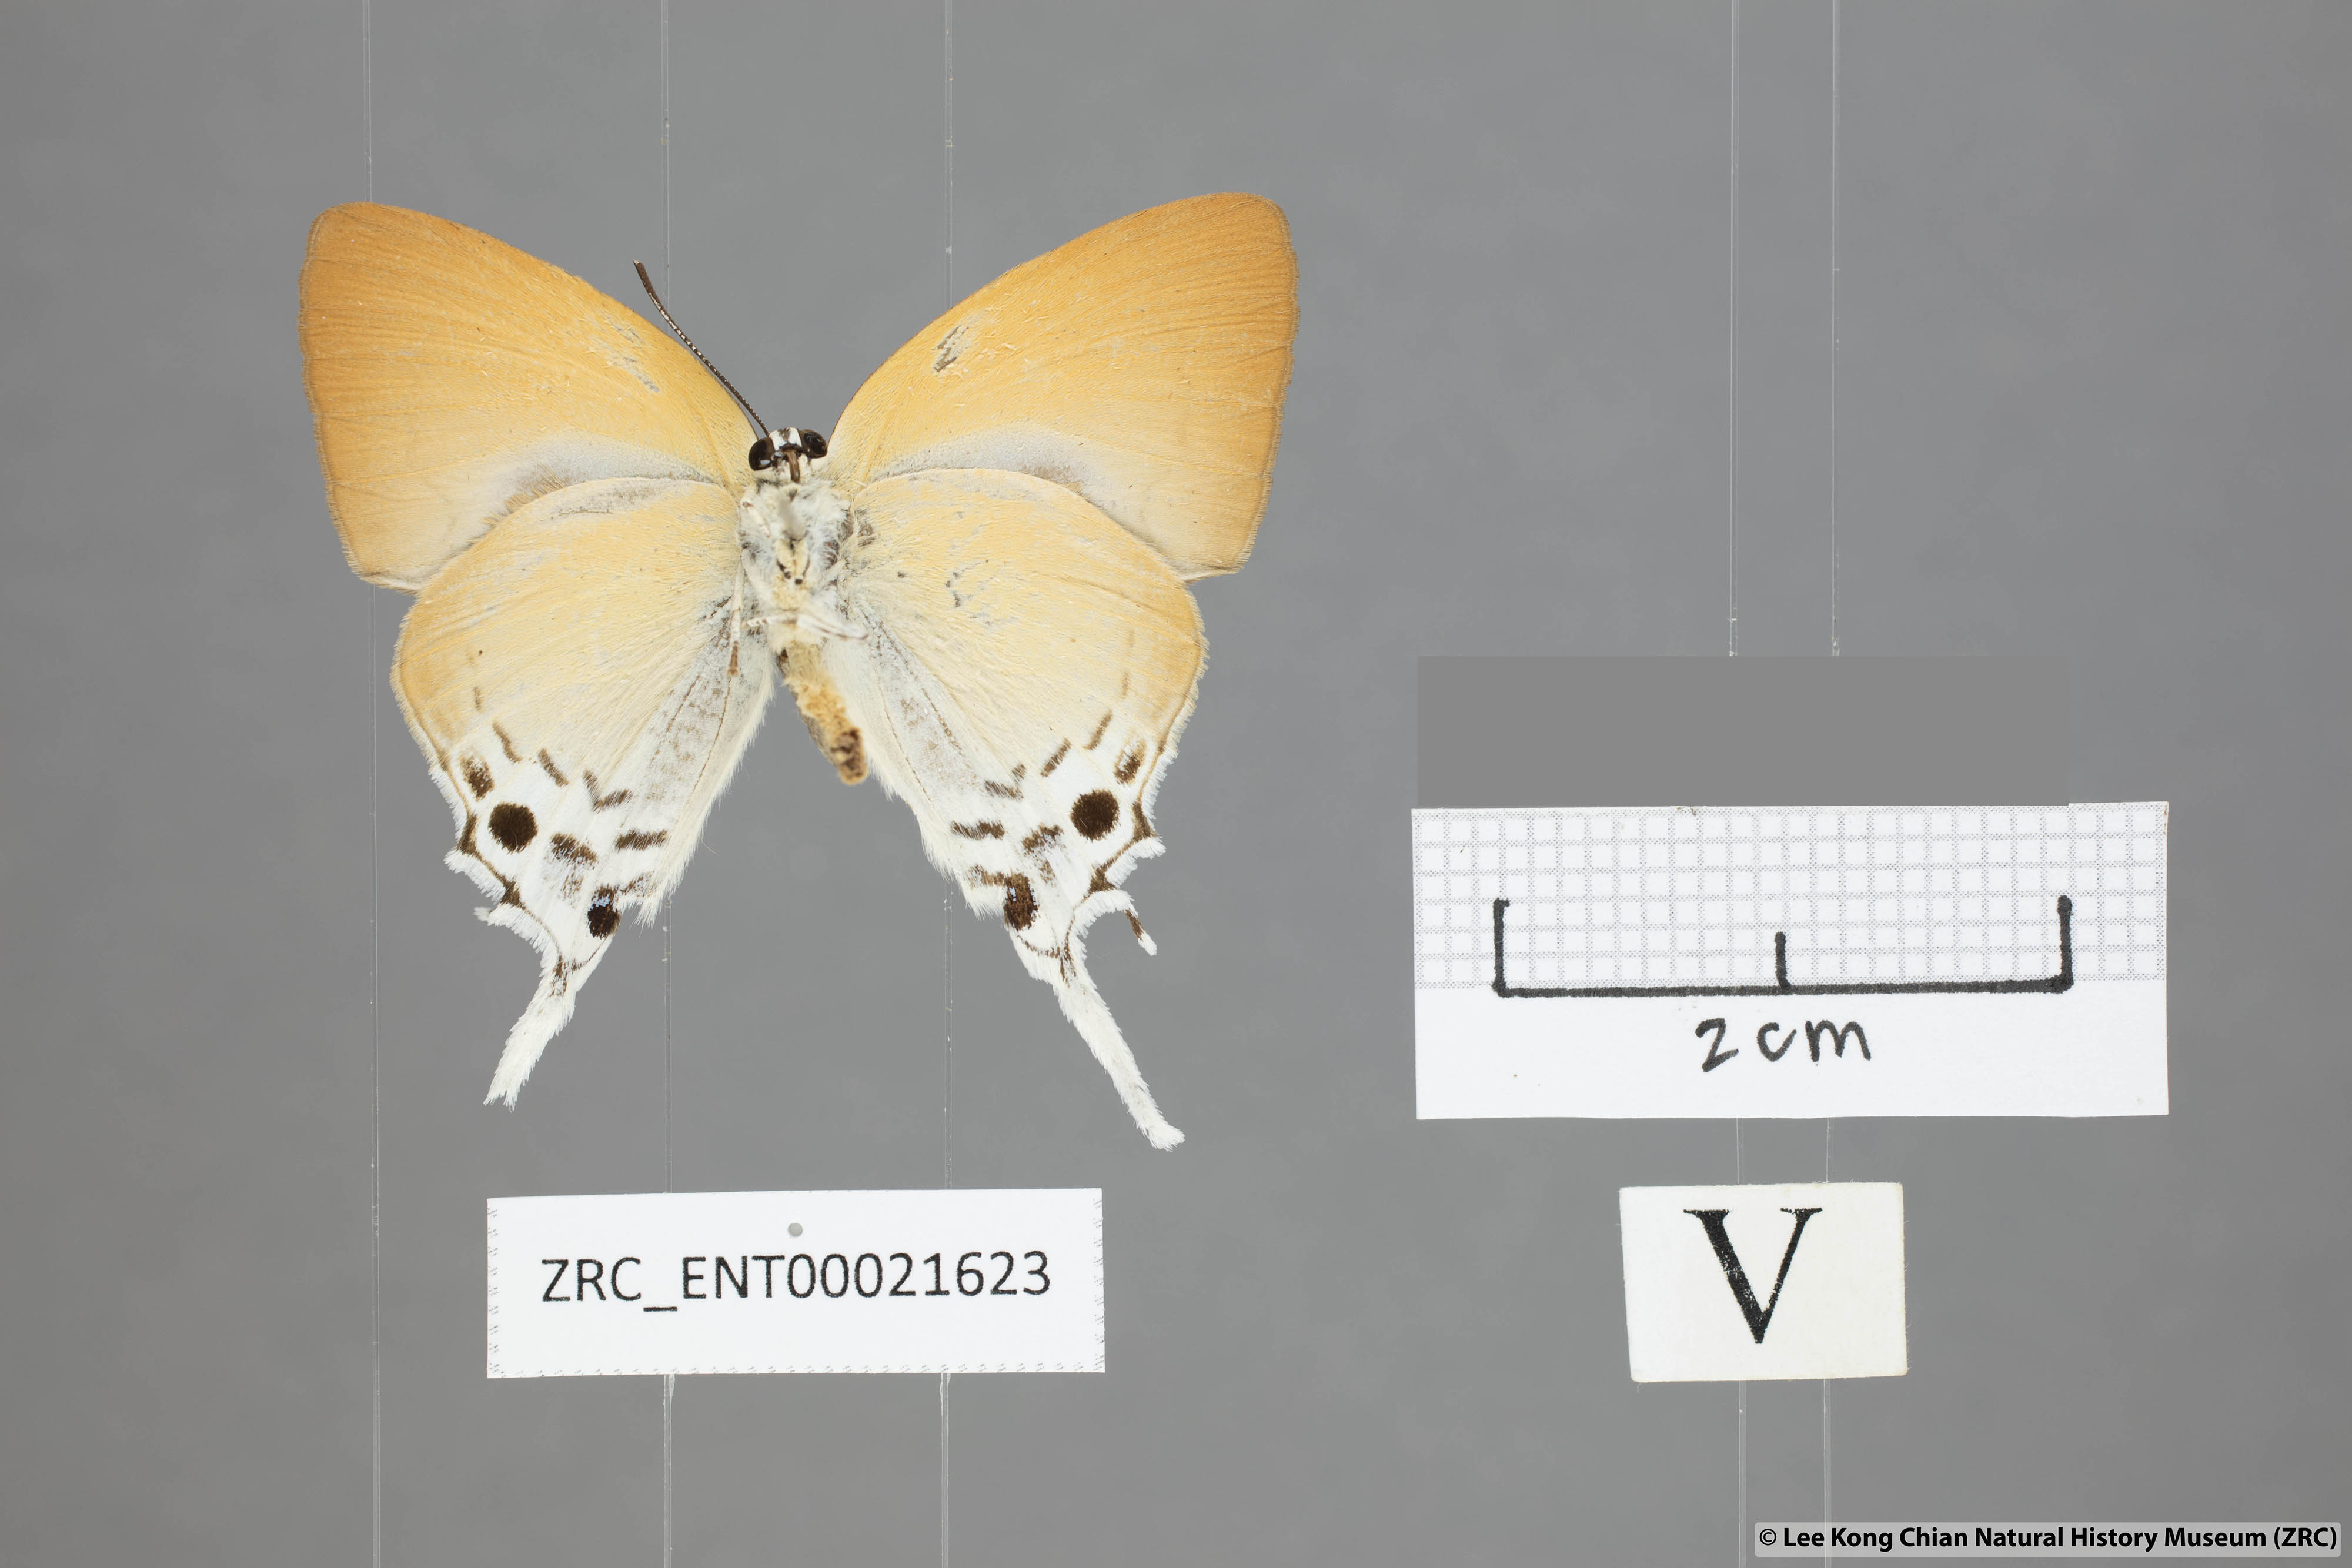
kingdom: Animalia
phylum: Arthropoda
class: Insecta
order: Lepidoptera
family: Lycaenidae
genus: Mantoides
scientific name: Mantoides gama
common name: Distant's imperial
